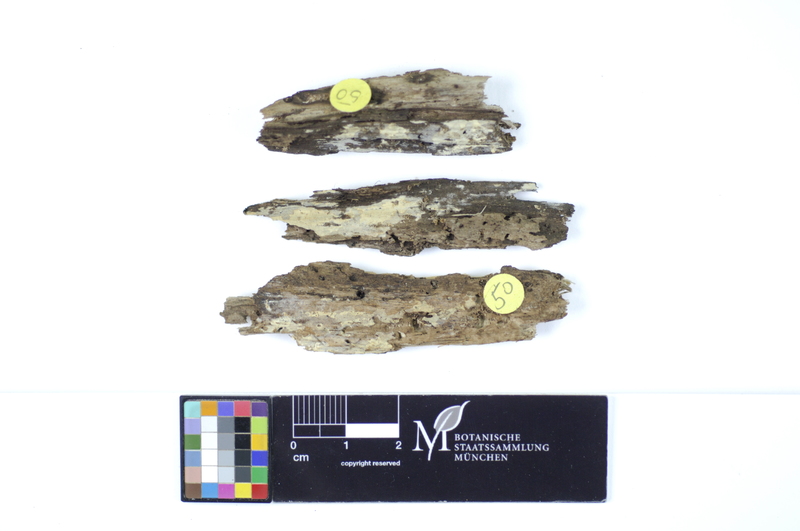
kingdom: Fungi
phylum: Basidiomycota
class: Agaricomycetes
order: Hymenochaetales
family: Rickenellaceae
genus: Peniophorella
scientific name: Peniophorella pubera
